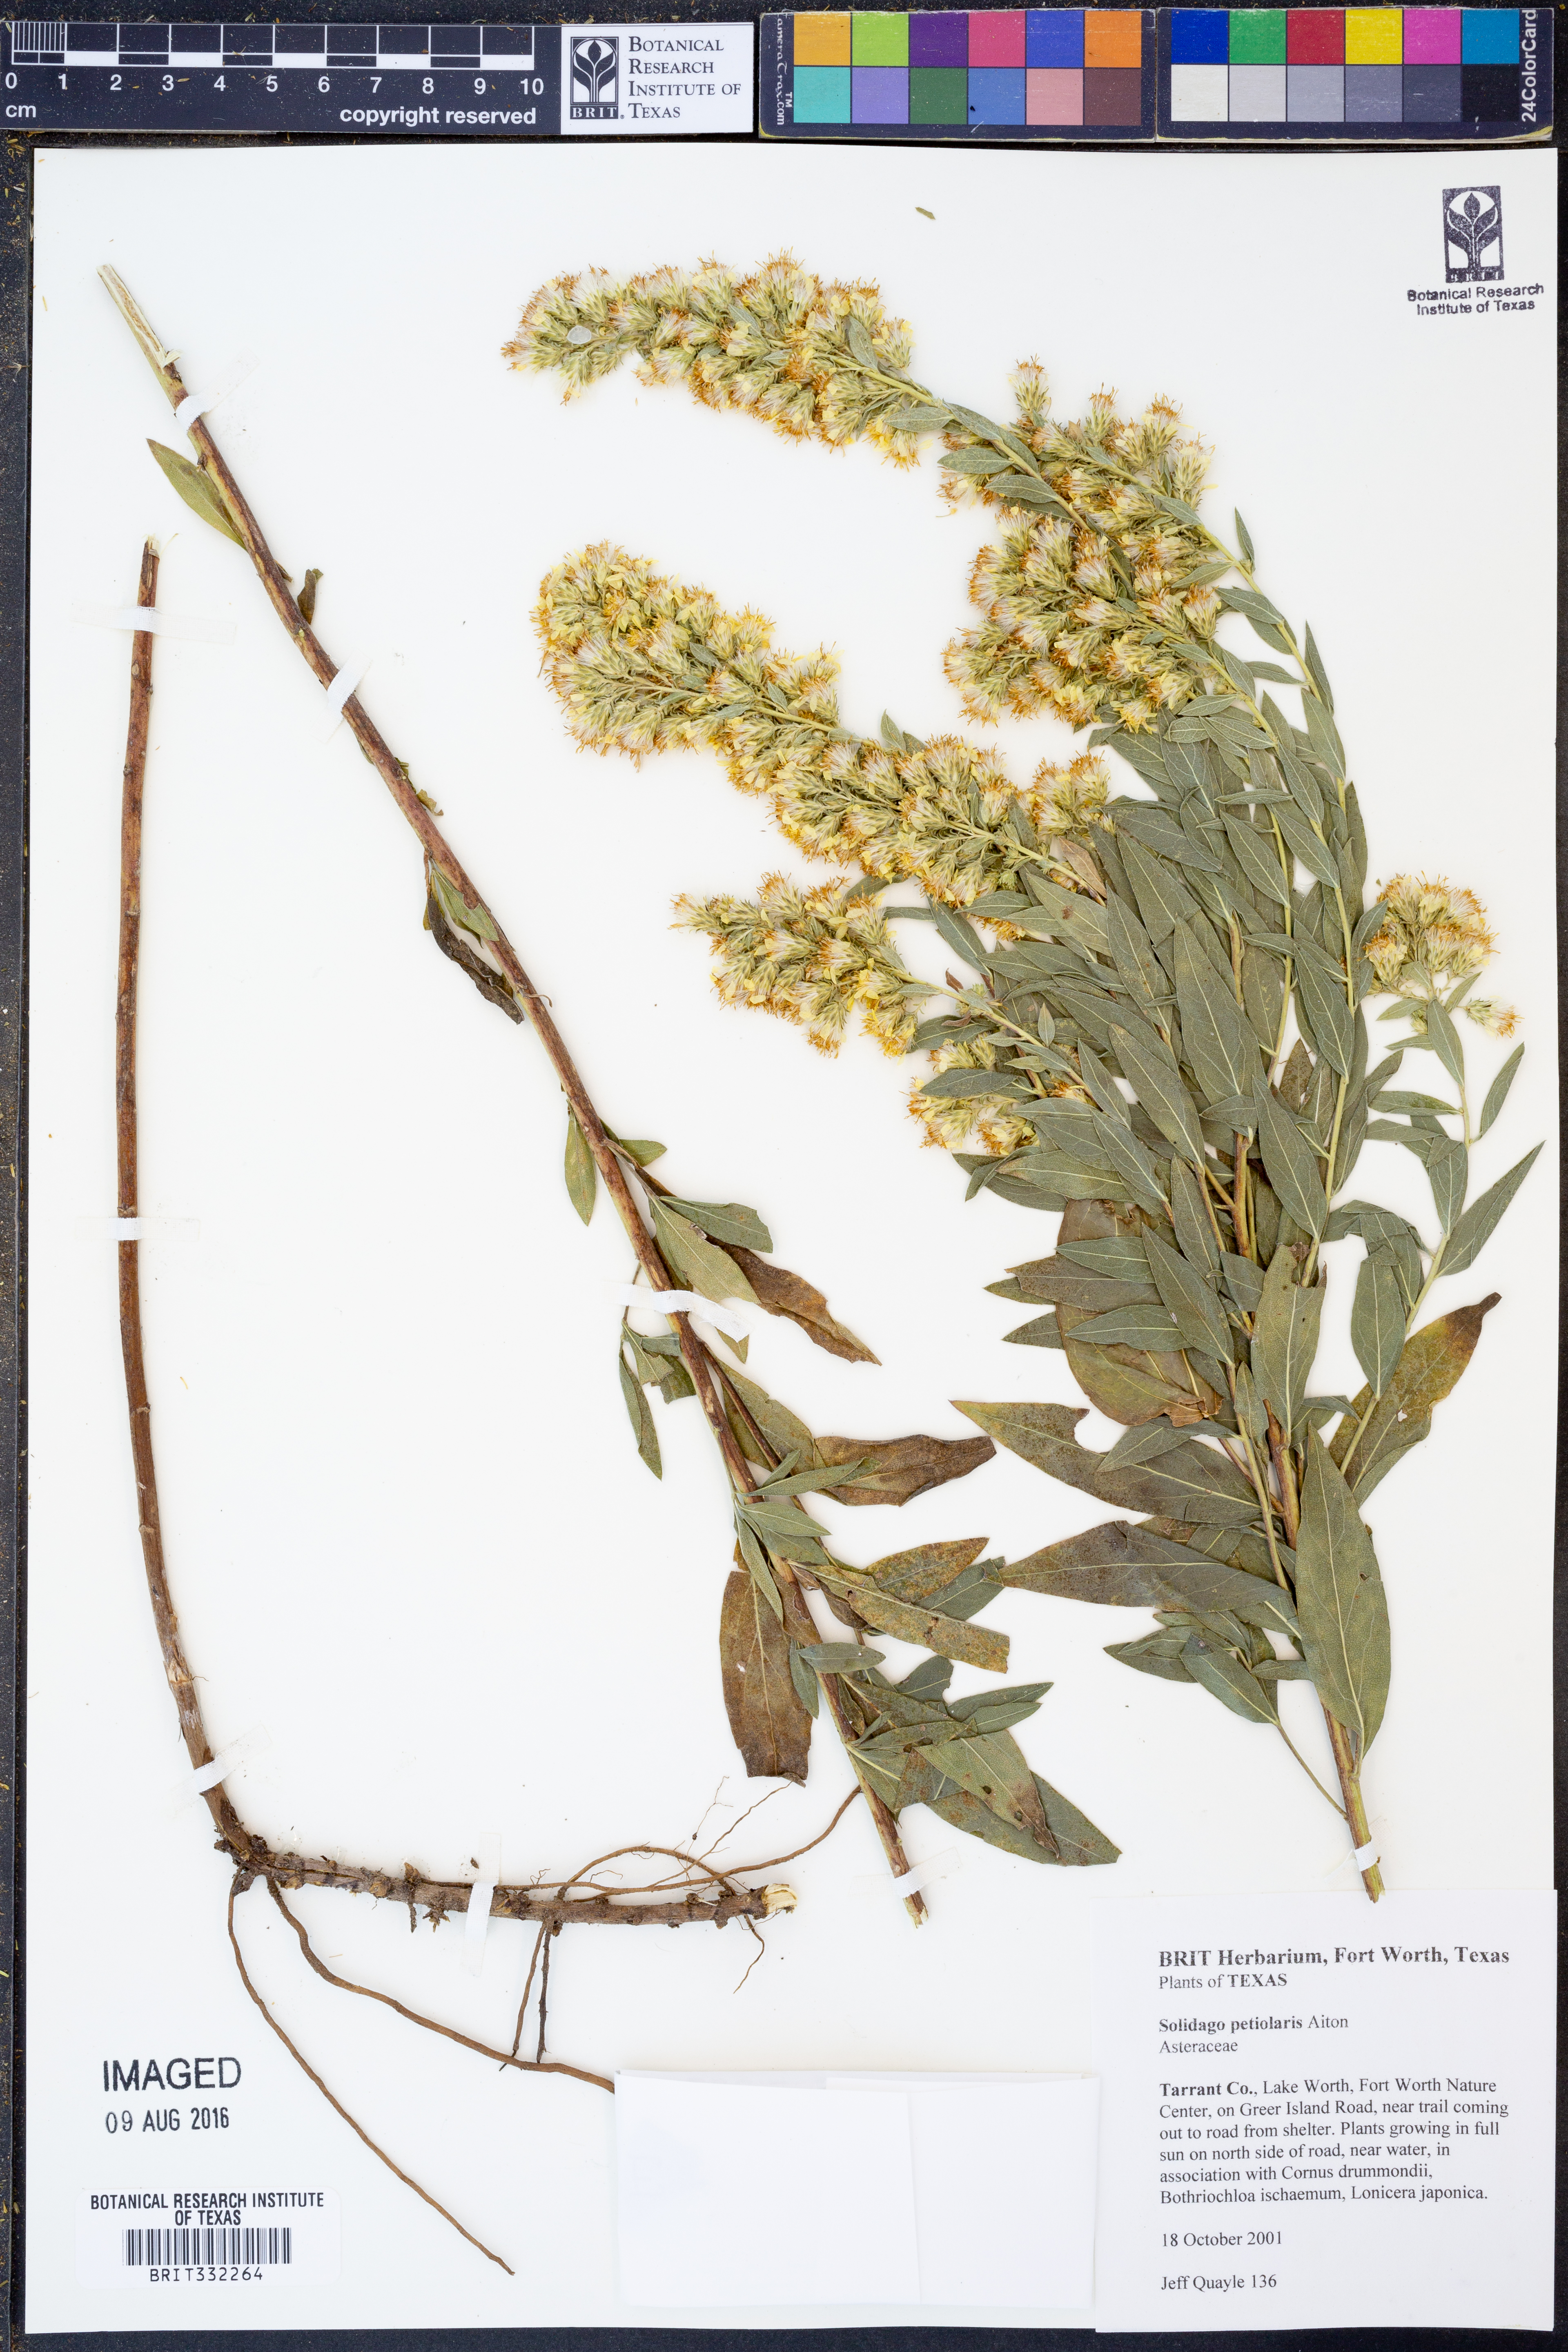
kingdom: Plantae
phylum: Tracheophyta
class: Magnoliopsida
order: Asterales
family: Asteraceae
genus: Solidago
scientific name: Solidago petiolaris
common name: Downy ragged goldenrod
